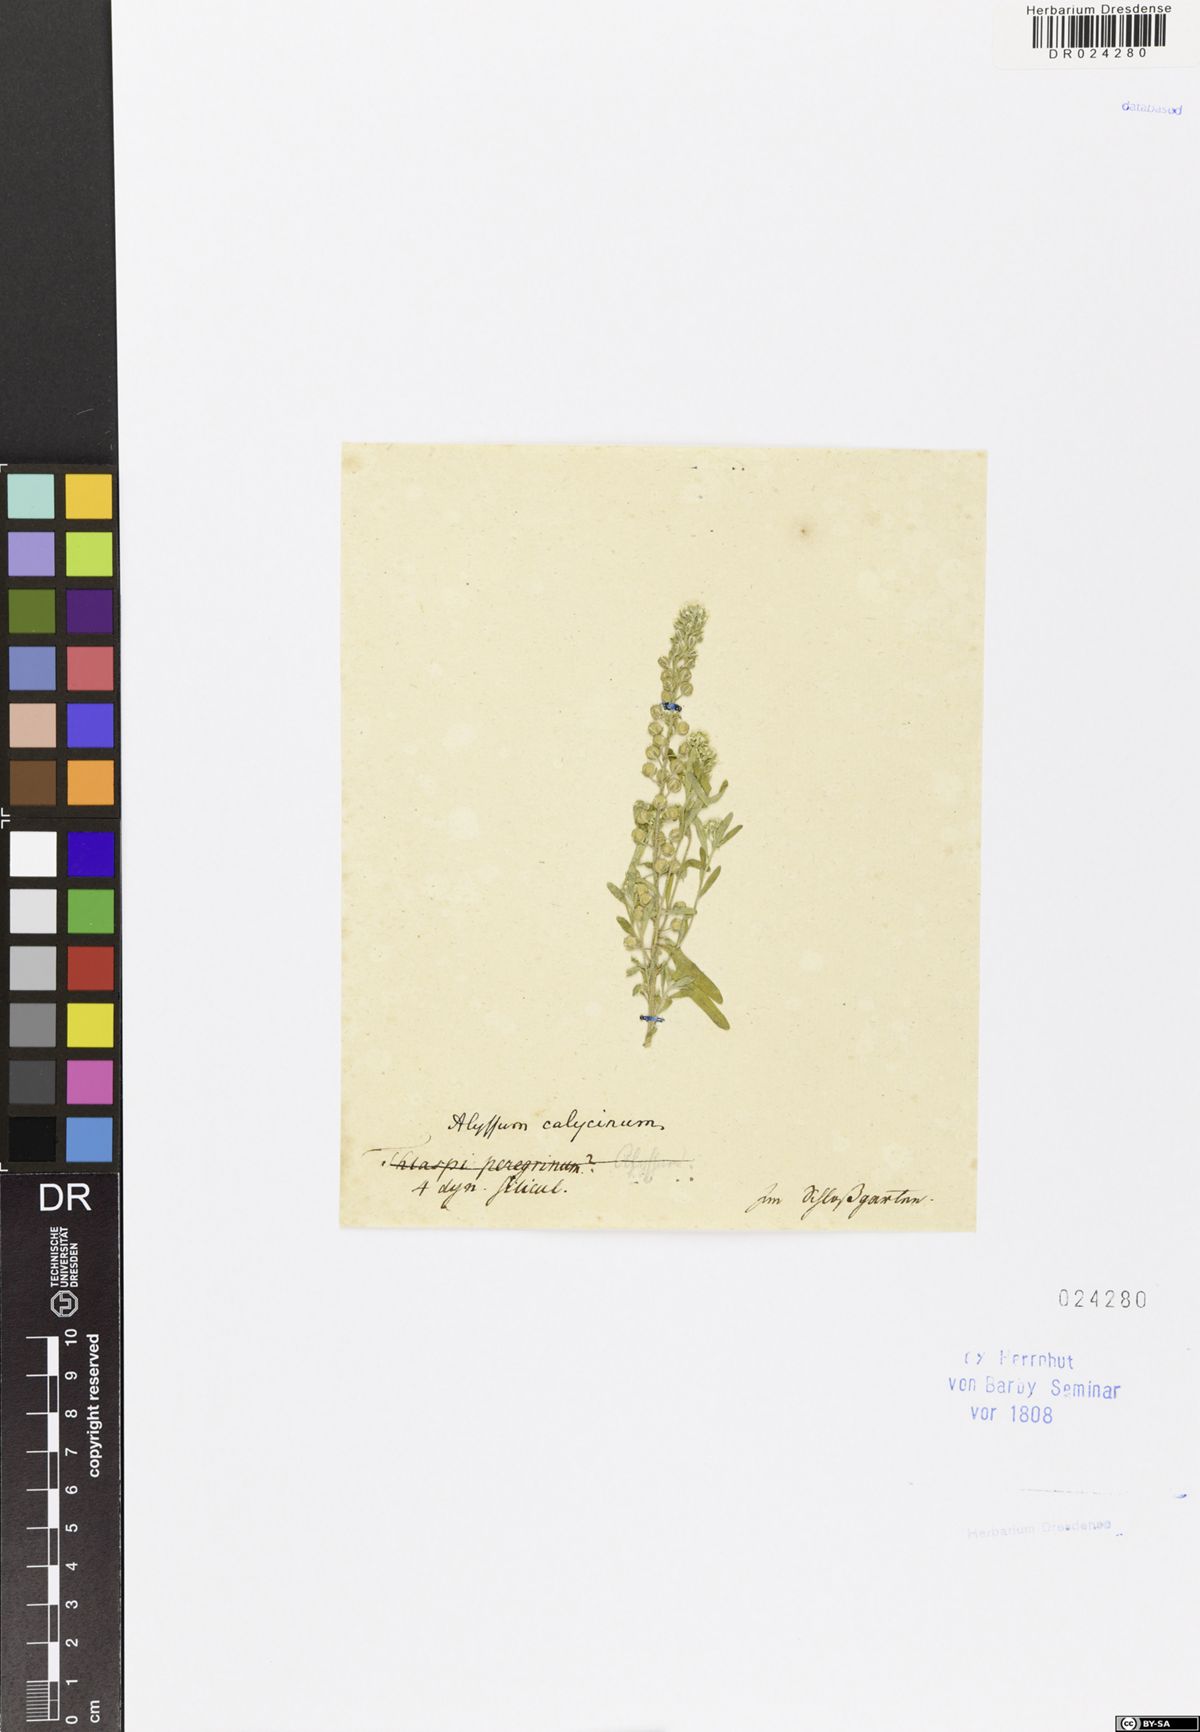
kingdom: Plantae
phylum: Tracheophyta
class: Magnoliopsida
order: Brassicales
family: Brassicaceae
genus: Alyssum
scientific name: Alyssum alyssoides
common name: Small alison
